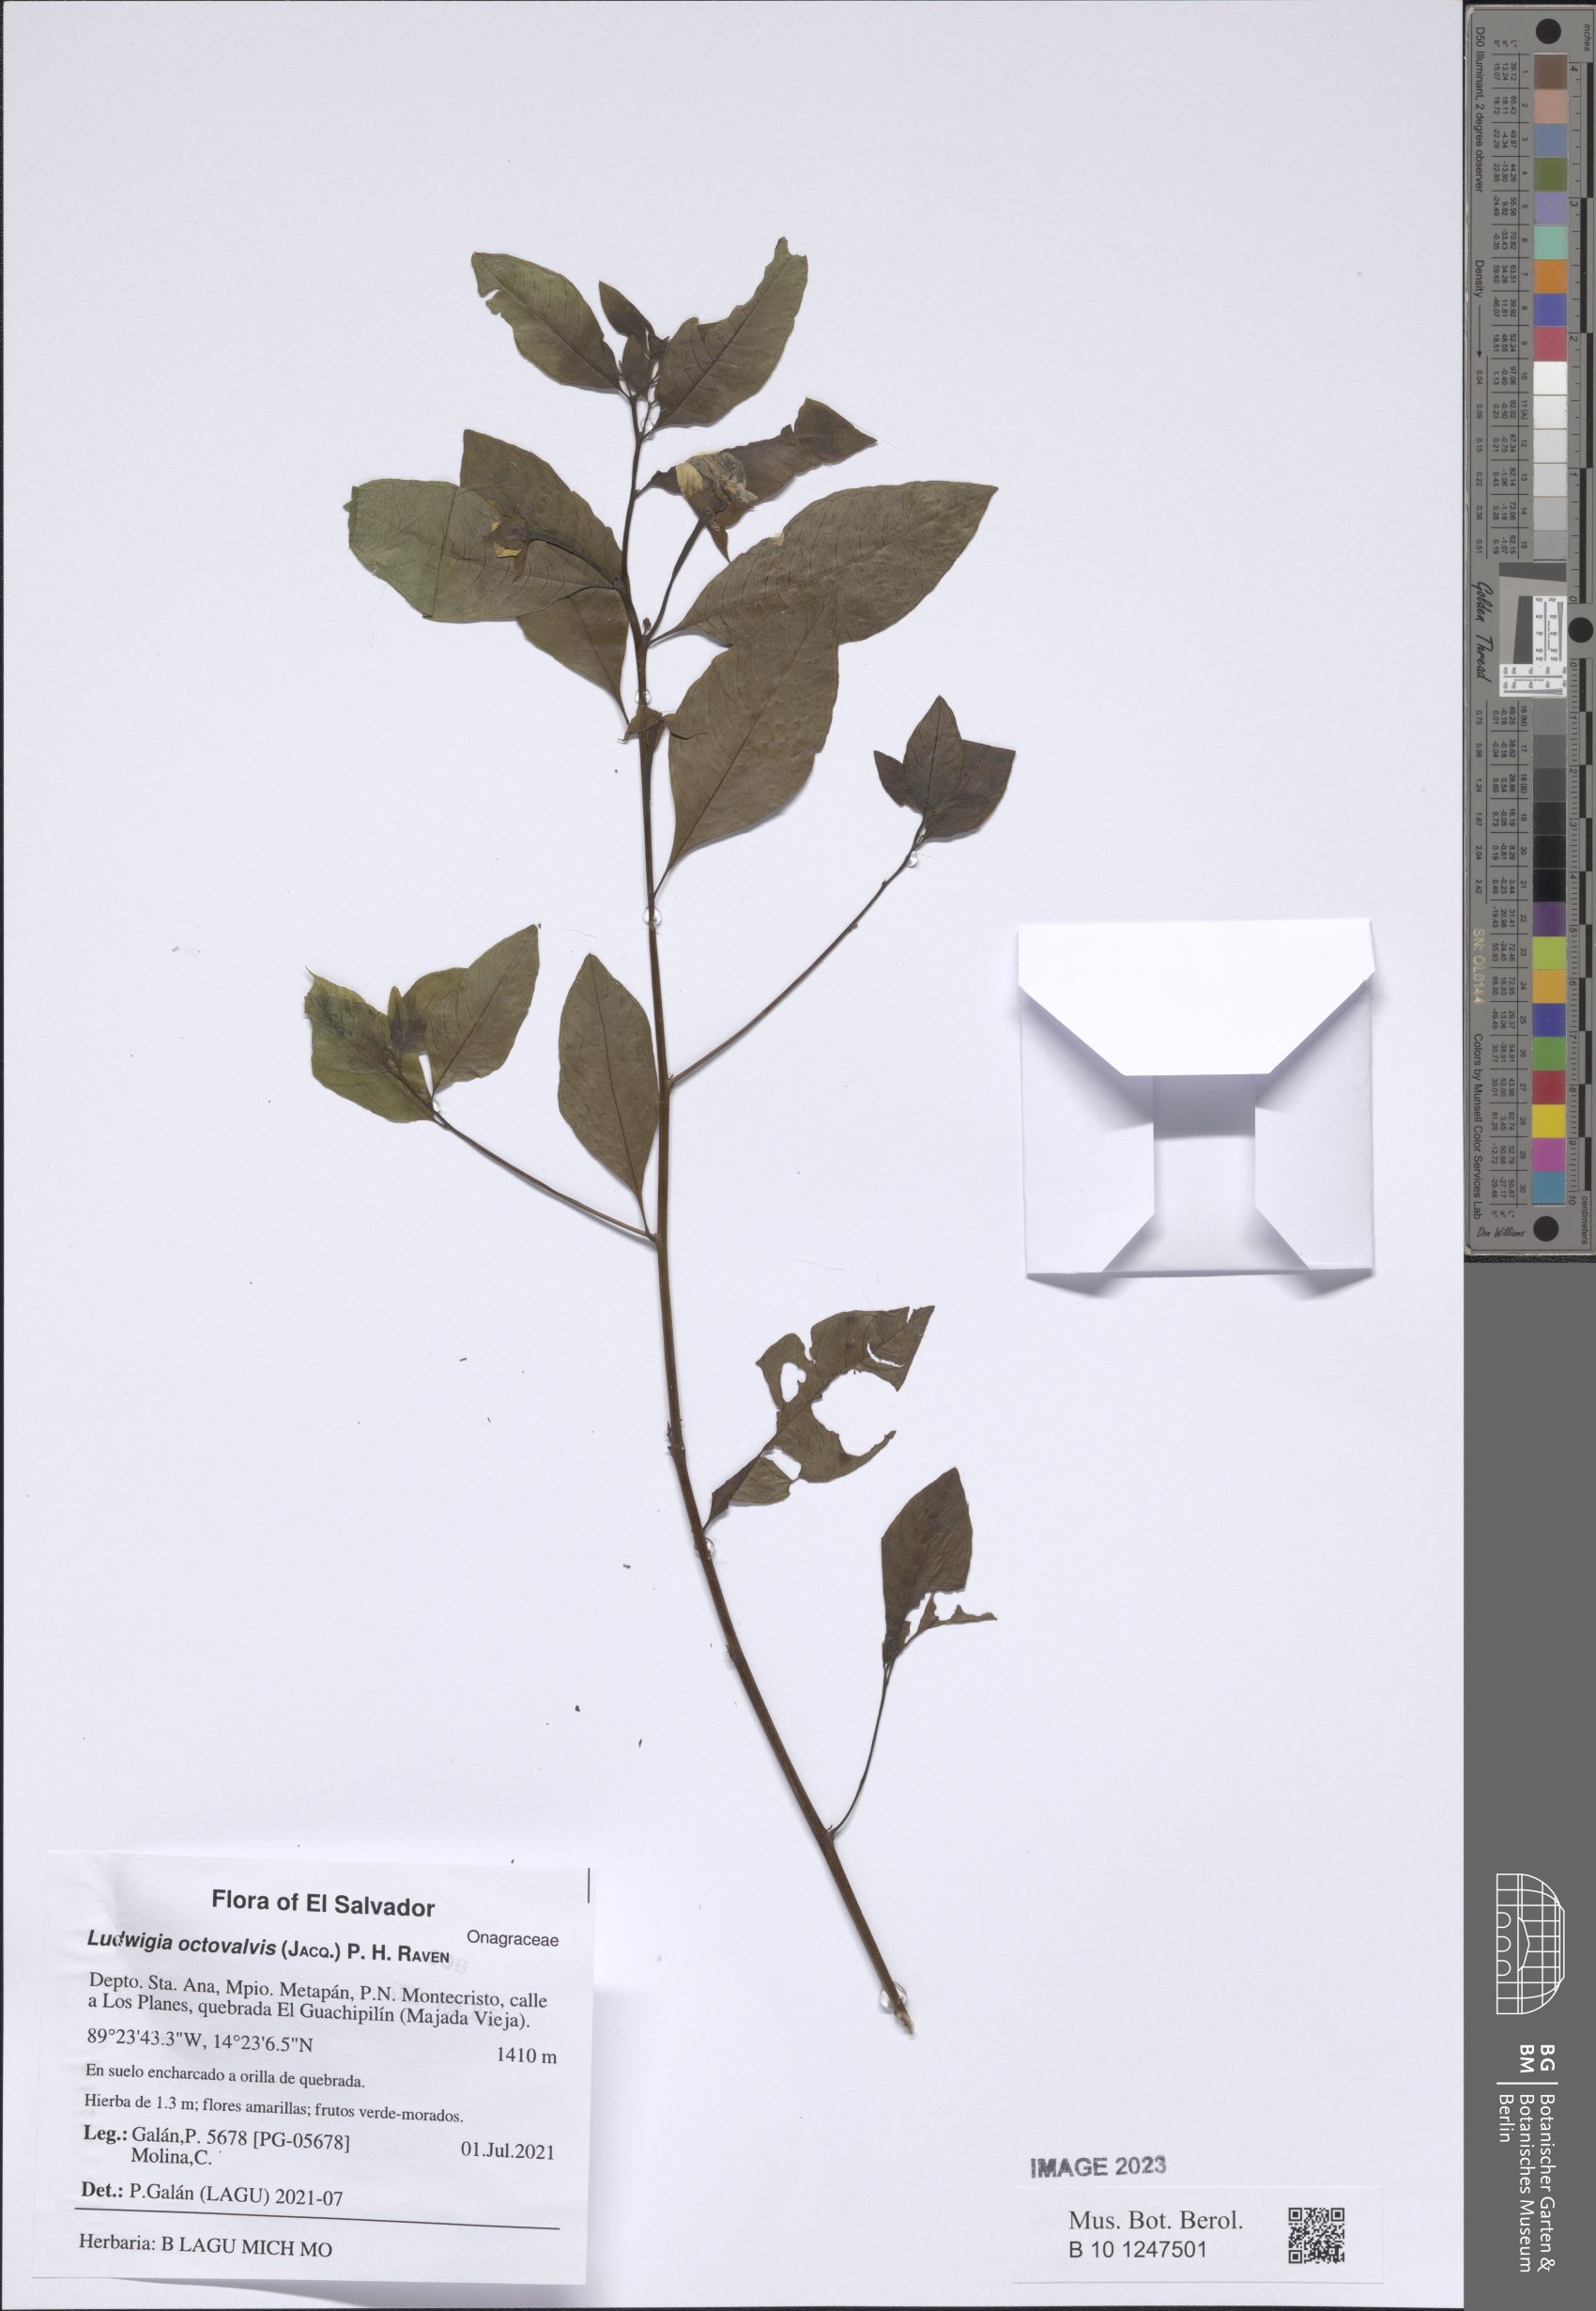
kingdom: Plantae
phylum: Tracheophyta
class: Magnoliopsida
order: Myrtales
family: Onagraceae
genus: Ludwigia
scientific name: Ludwigia octovalvis
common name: Water-primrose
